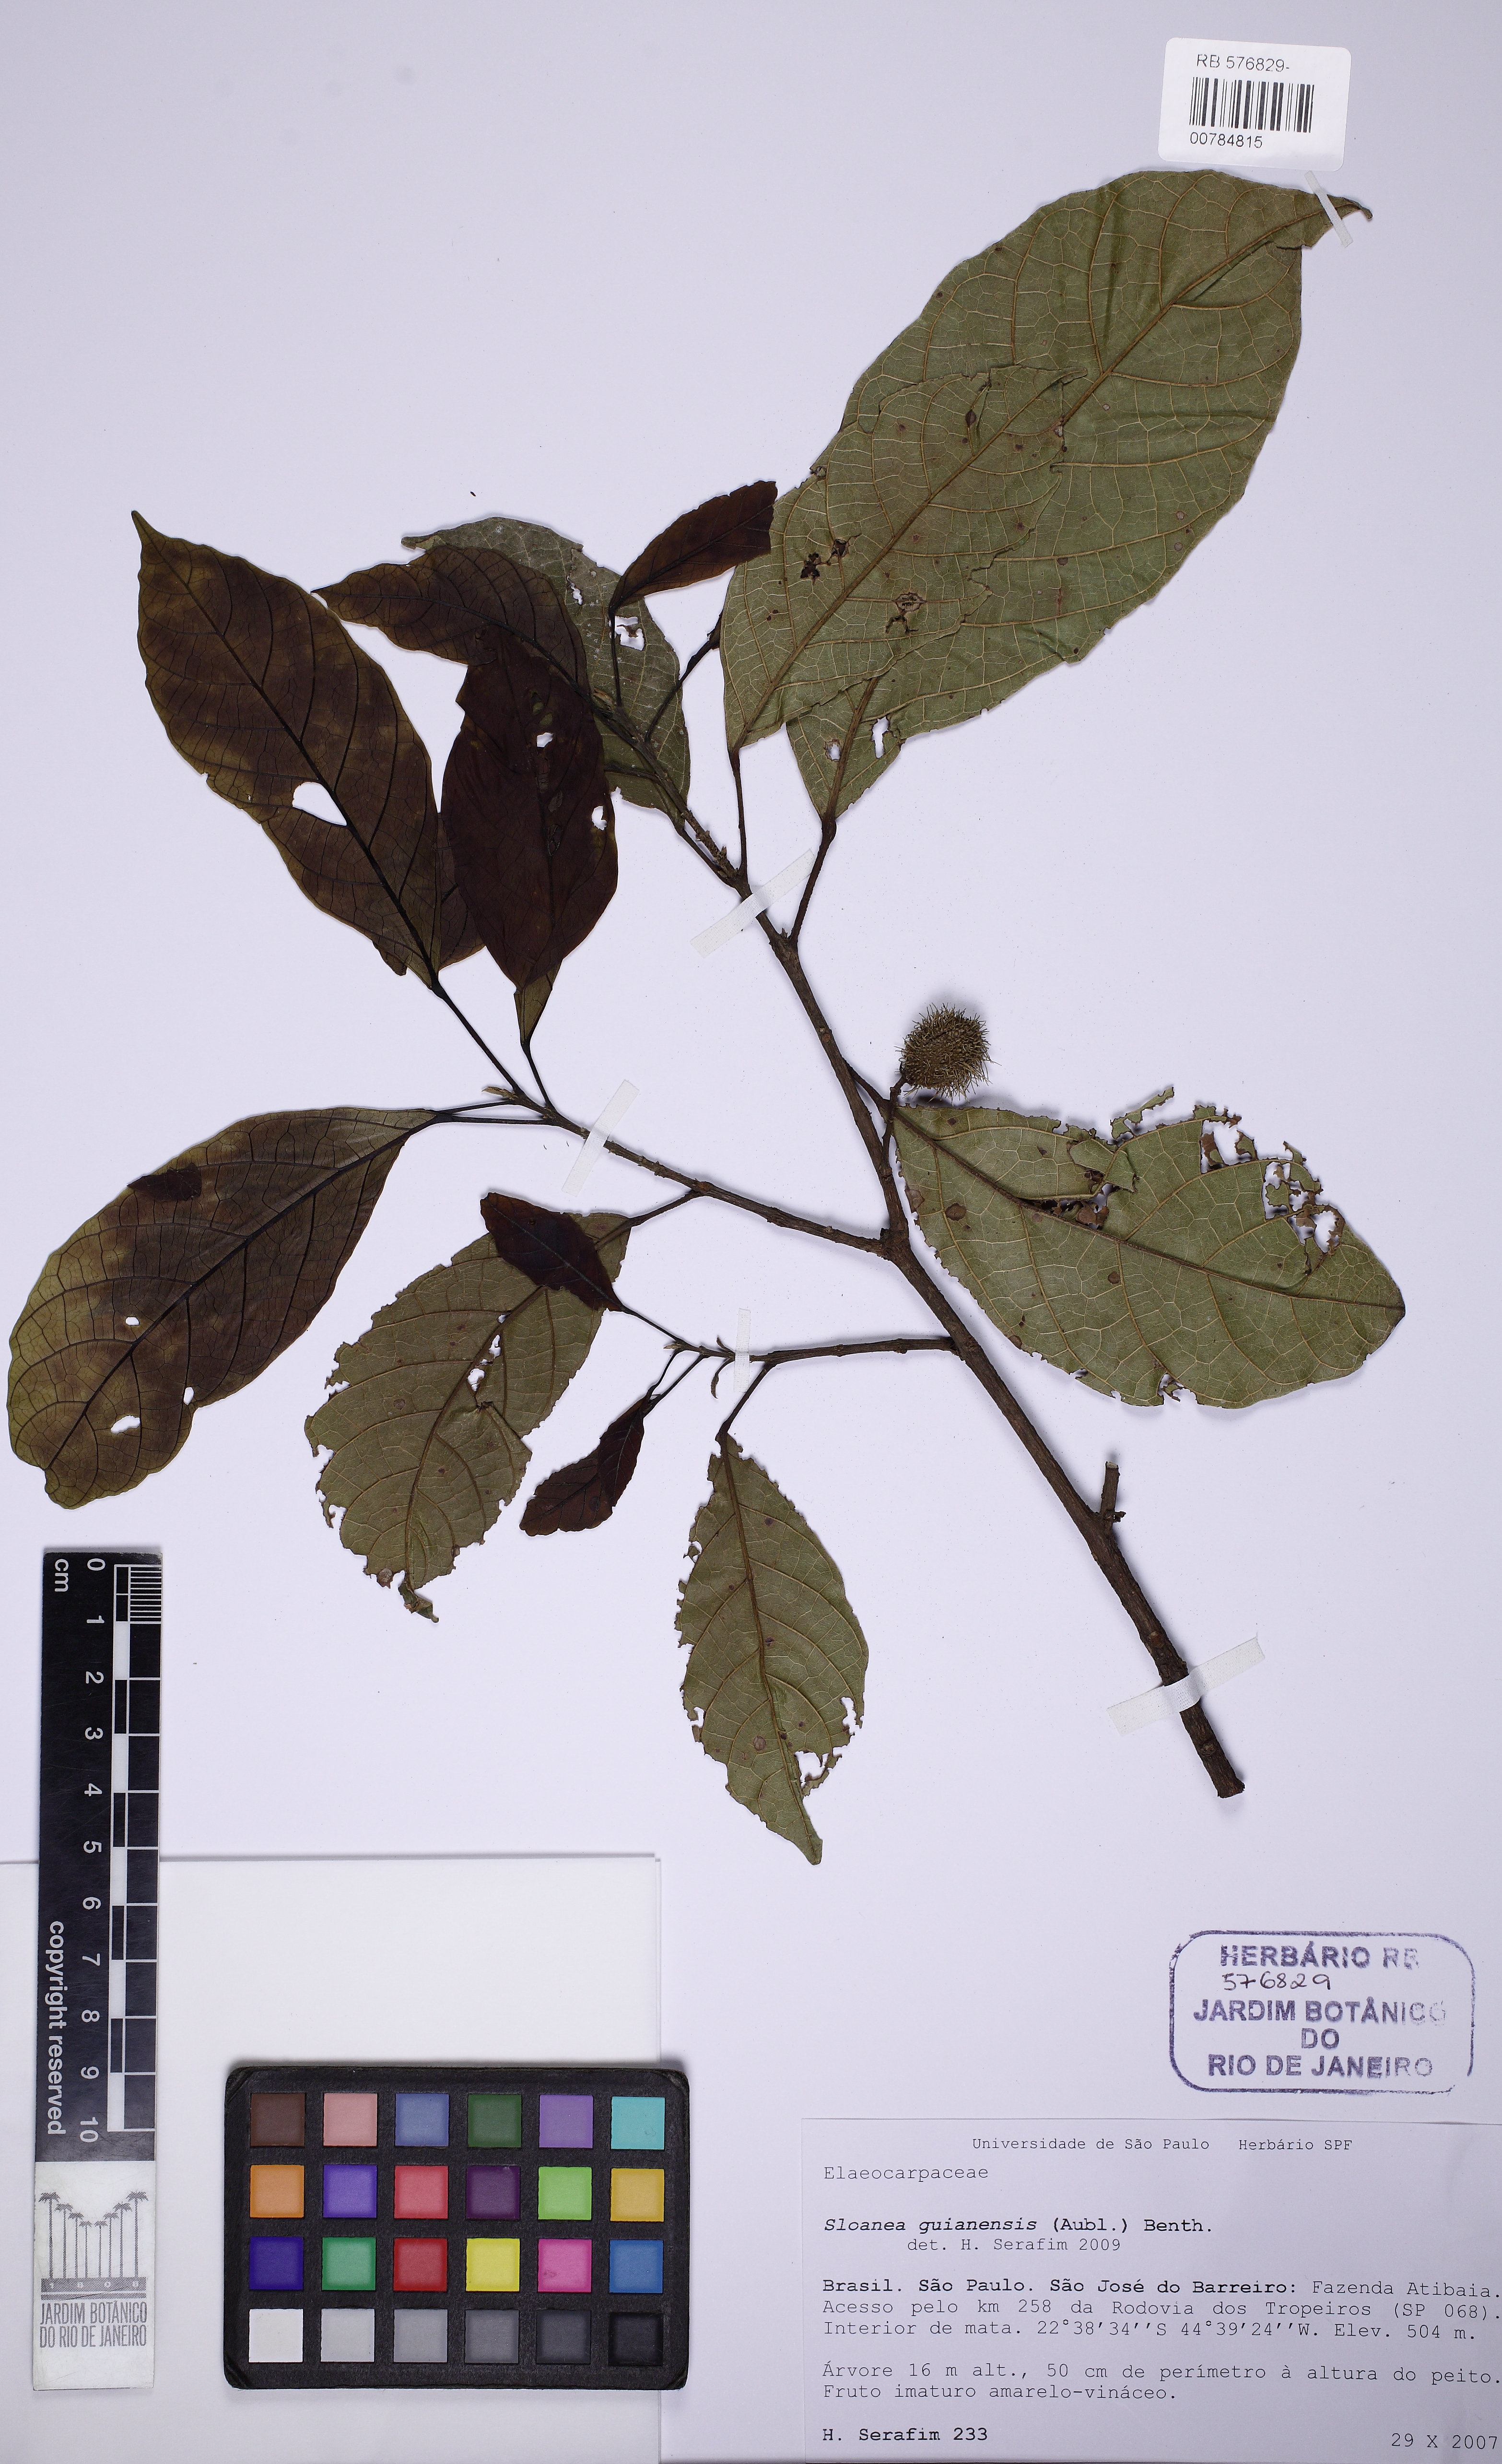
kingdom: Plantae
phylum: Tracheophyta
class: Magnoliopsida
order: Oxalidales
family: Elaeocarpaceae
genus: Sloanea
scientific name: Sloanea guianensis
